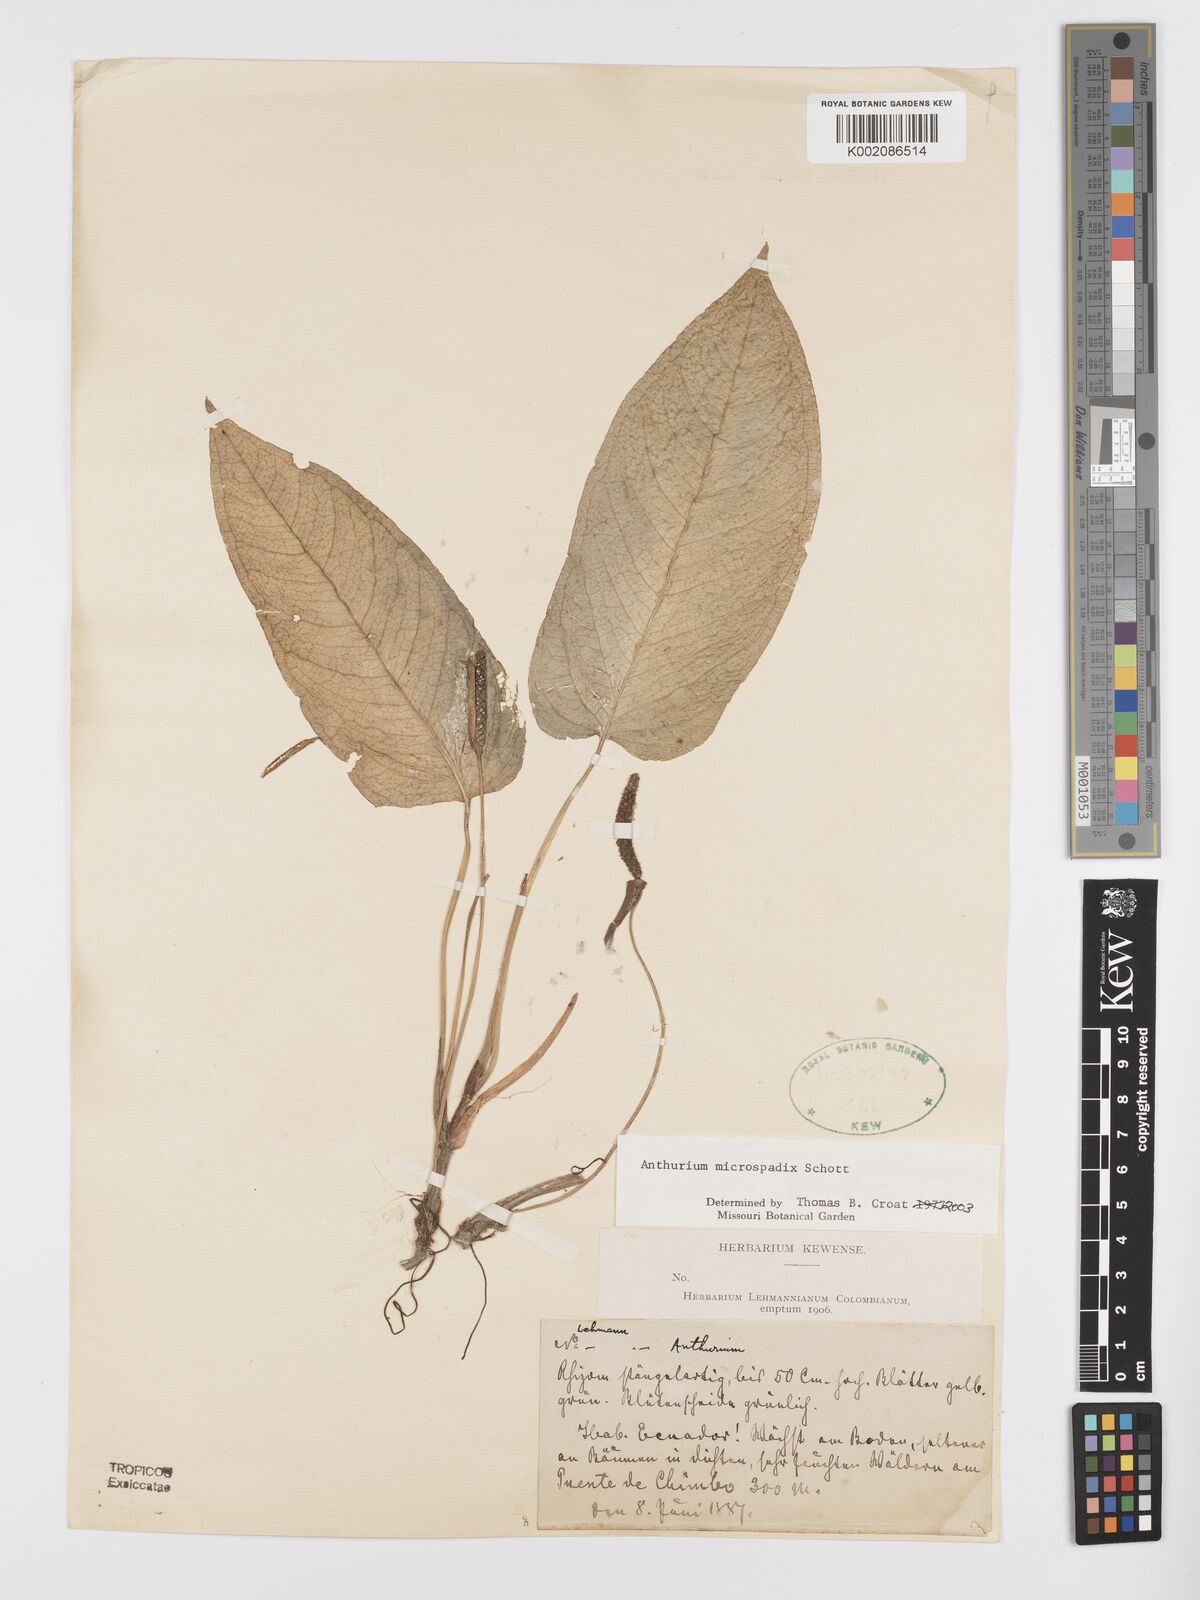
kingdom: Plantae
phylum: Tracheophyta
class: Liliopsida
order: Alismatales
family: Araceae
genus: Anthurium
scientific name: Anthurium microspadix
